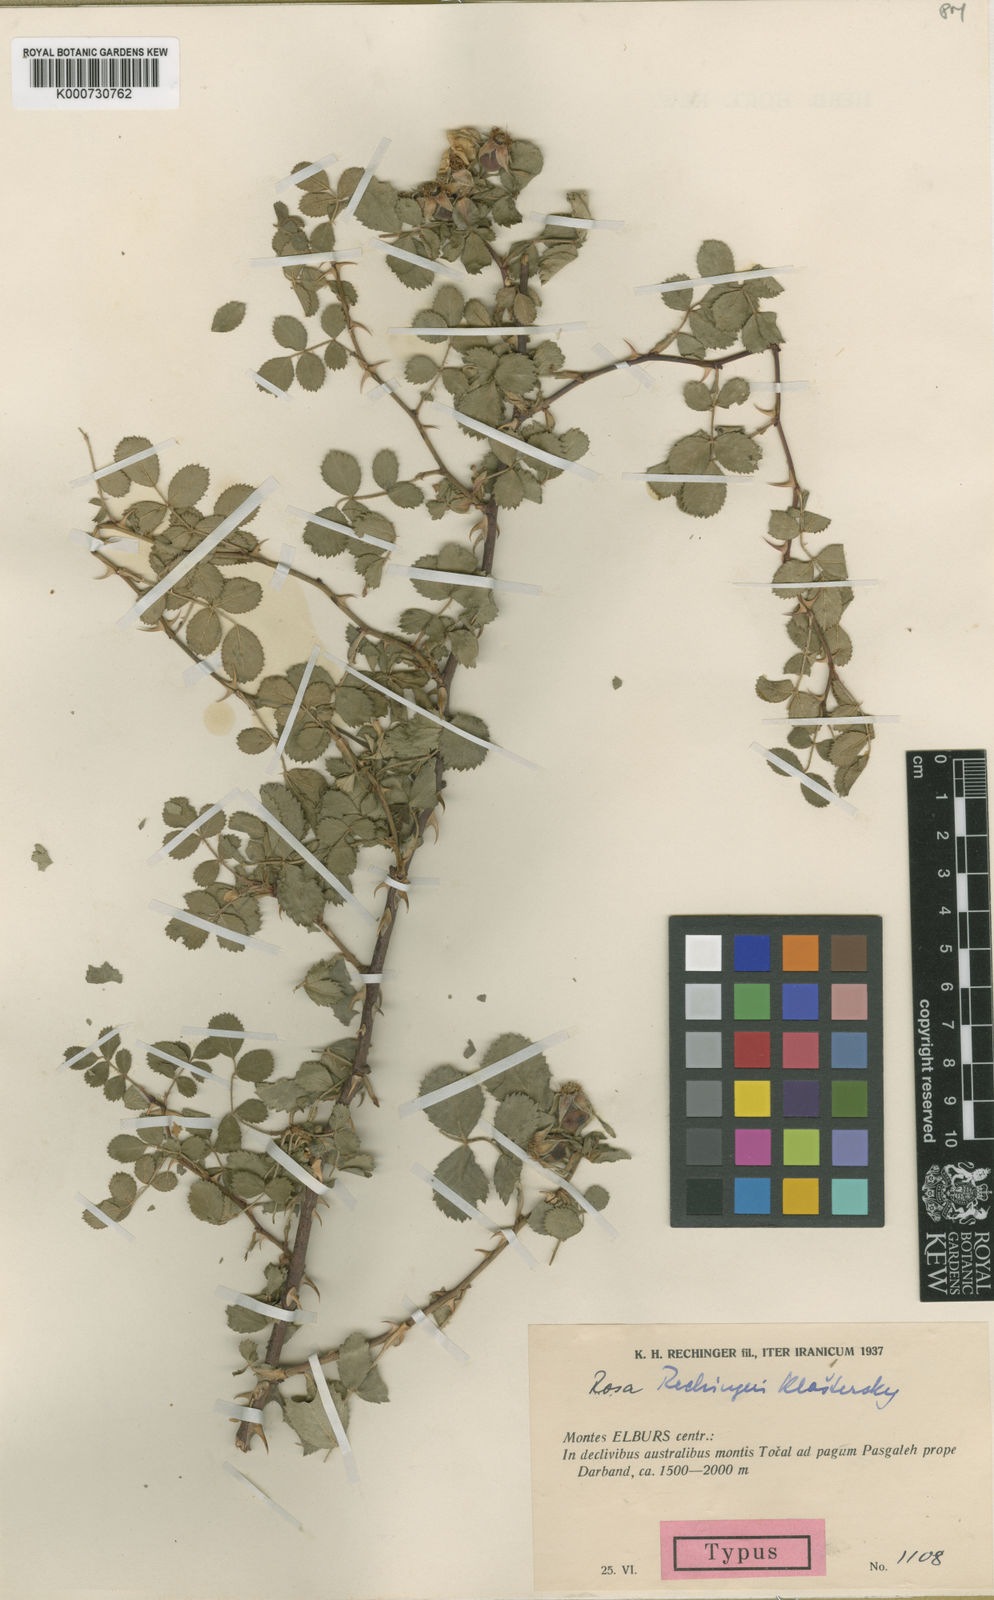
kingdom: Plantae
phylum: Tracheophyta
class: Magnoliopsida
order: Rosales
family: Rosaceae
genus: Rosa
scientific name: Rosa
